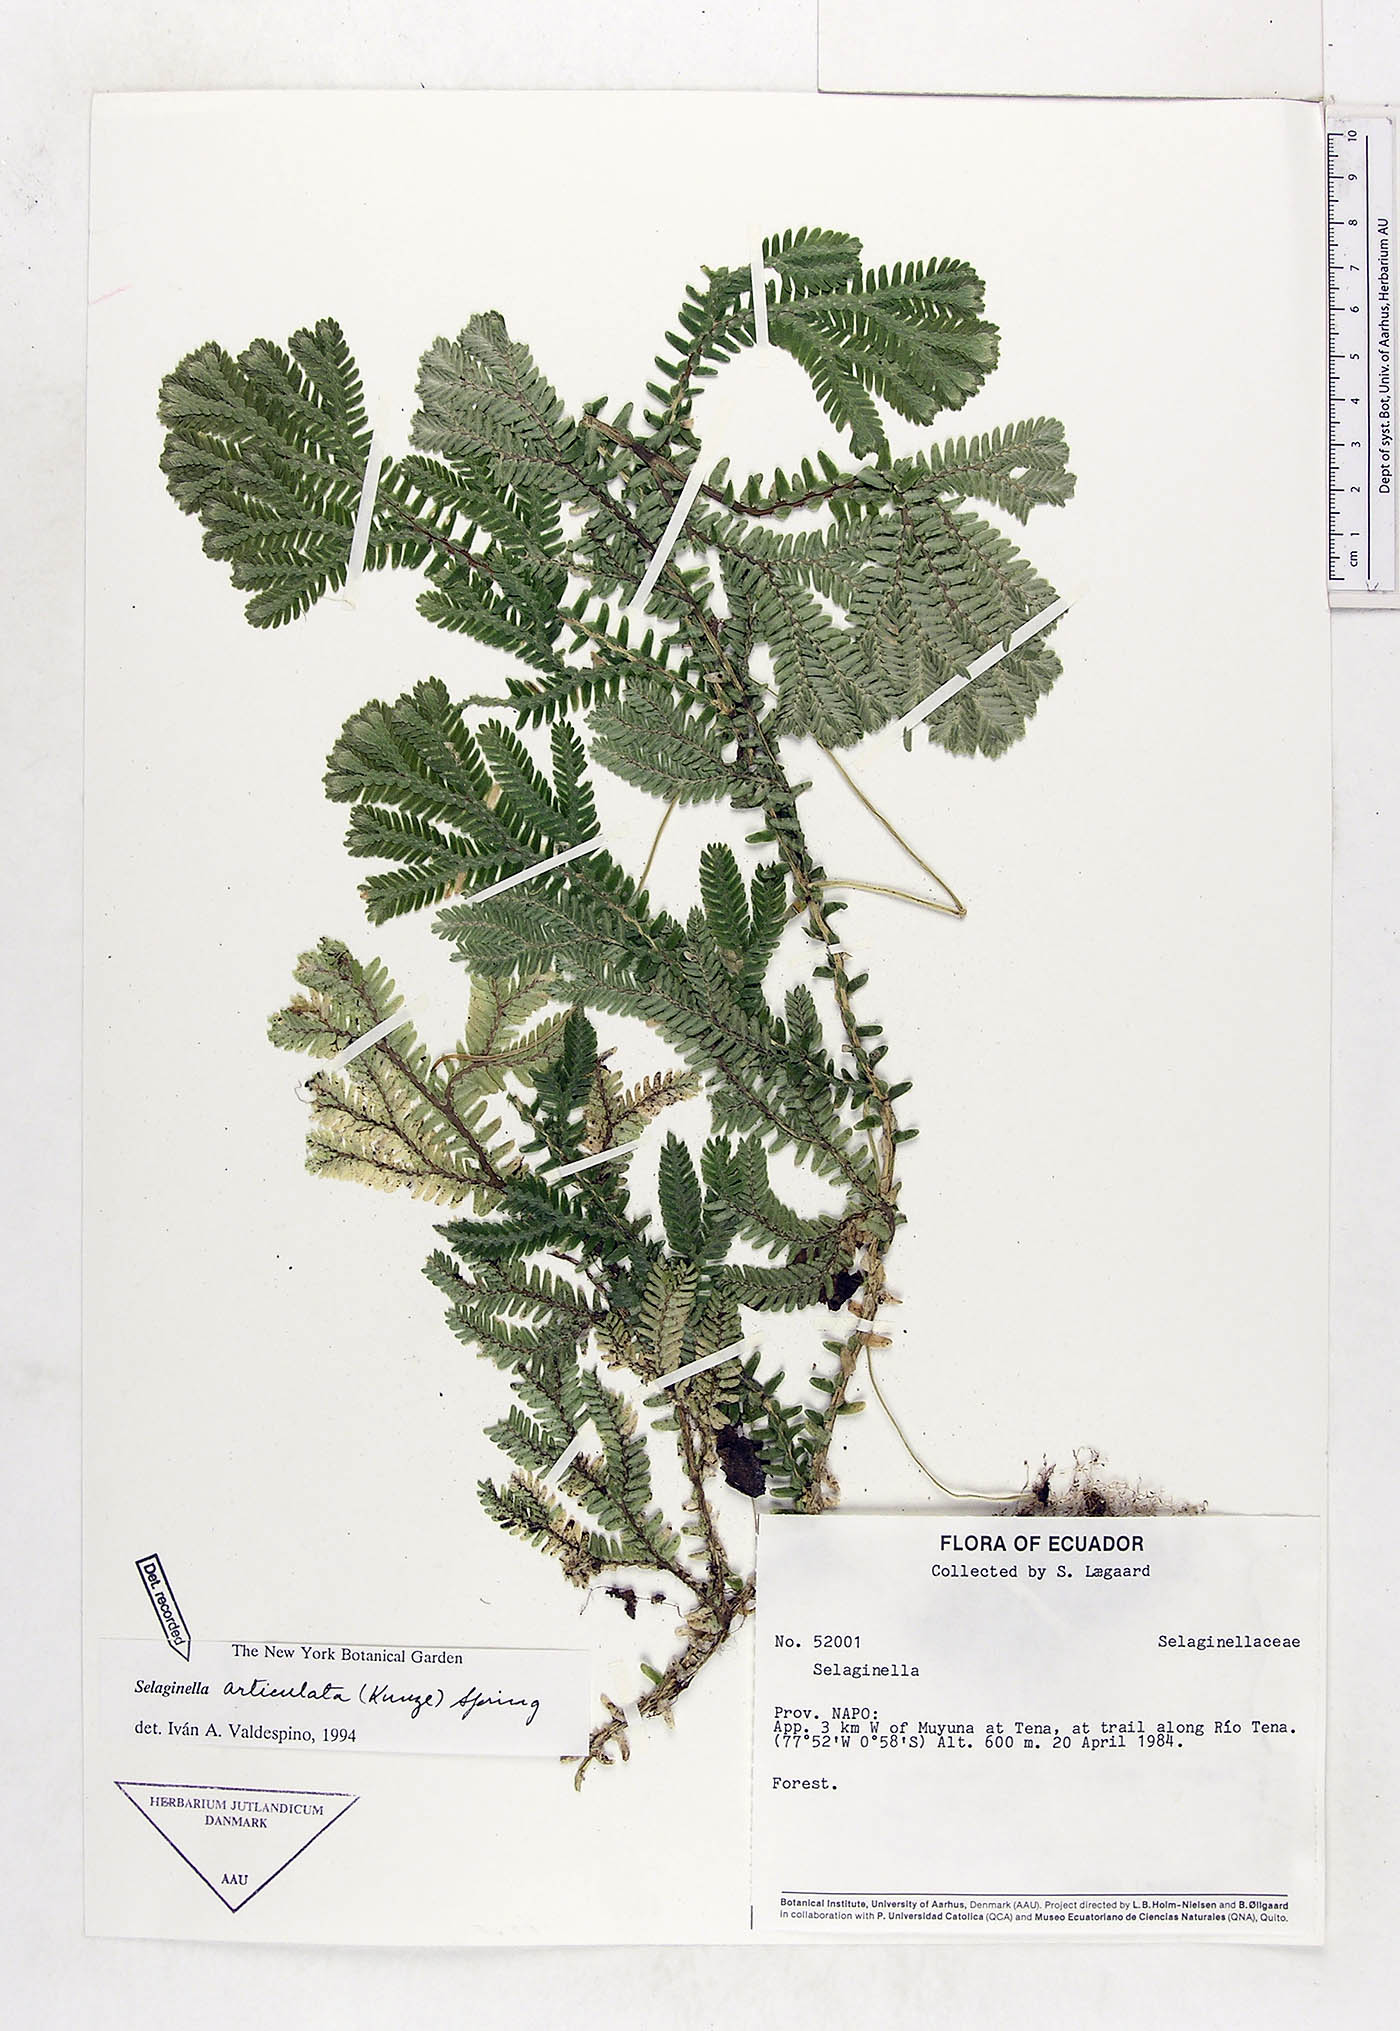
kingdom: Plantae
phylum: Tracheophyta
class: Lycopodiopsida
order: Selaginellales
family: Selaginellaceae
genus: Selaginella
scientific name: Selaginella articulata
